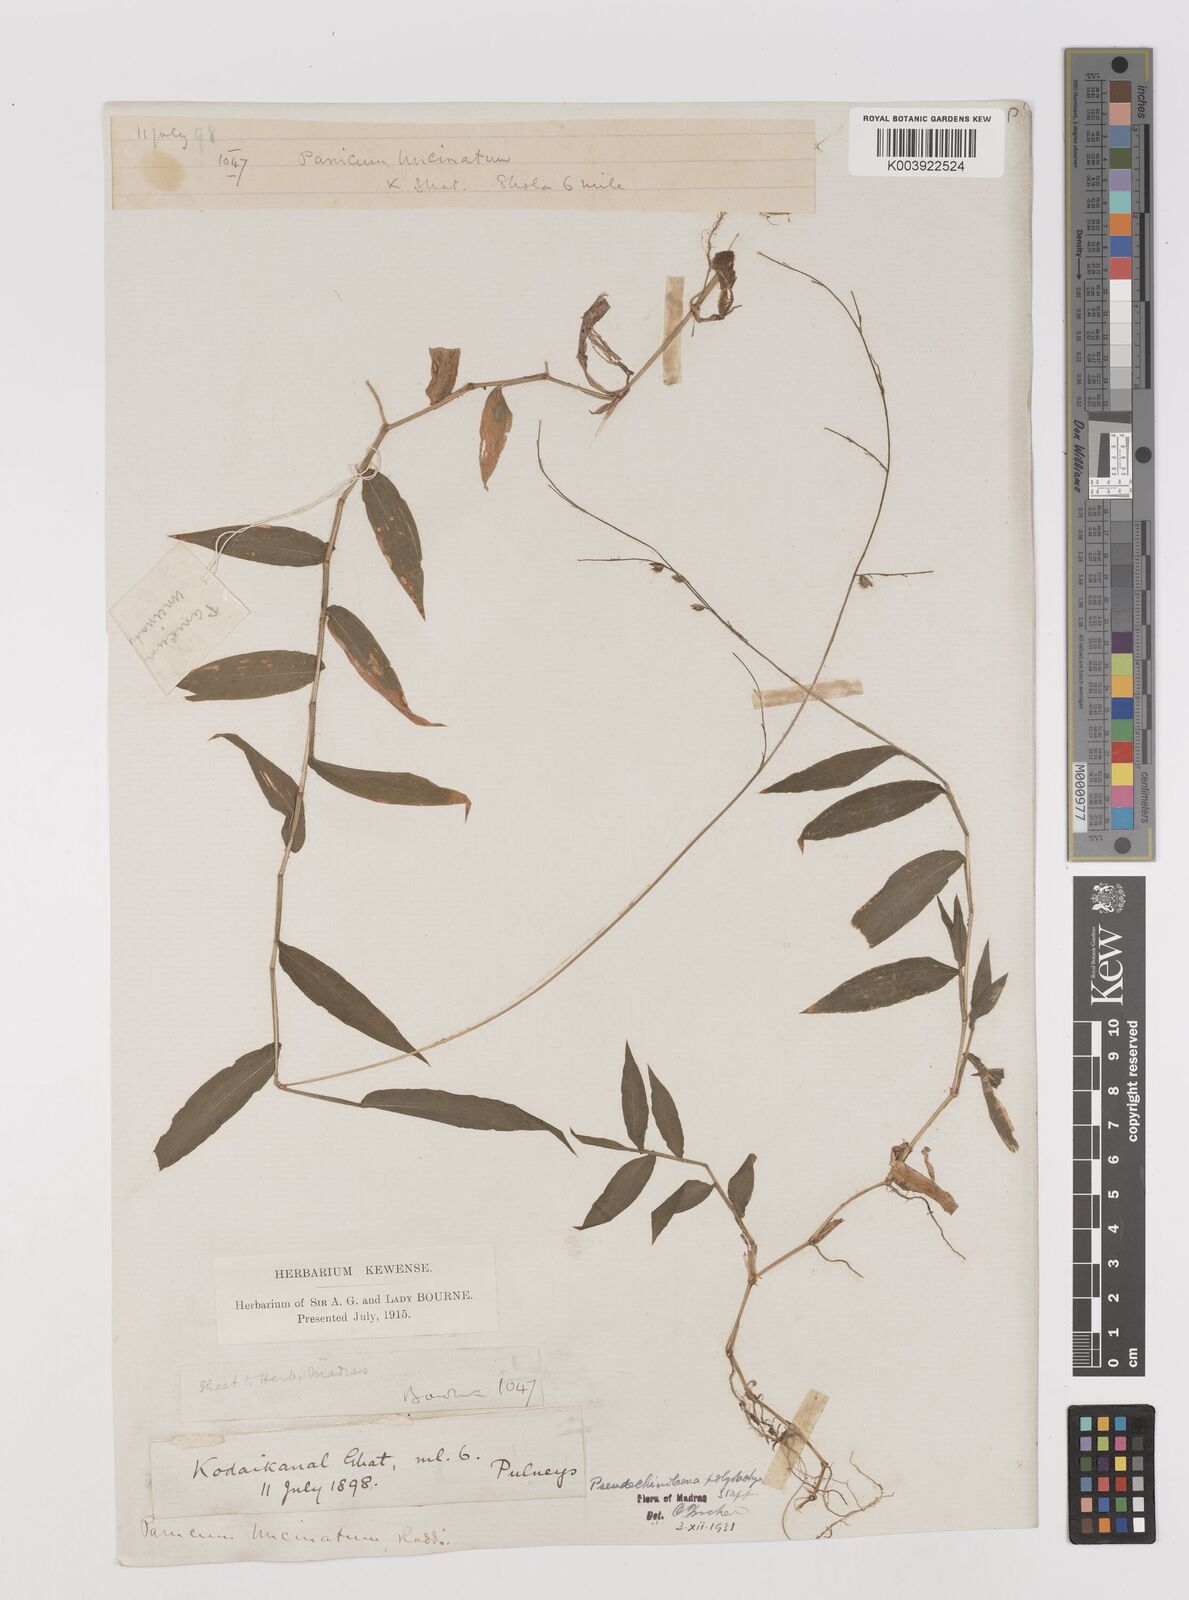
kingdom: Plantae
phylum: Tracheophyta
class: Liliopsida
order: Poales
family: Poaceae
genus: Pseudechinolaena
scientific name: Pseudechinolaena polystachya
